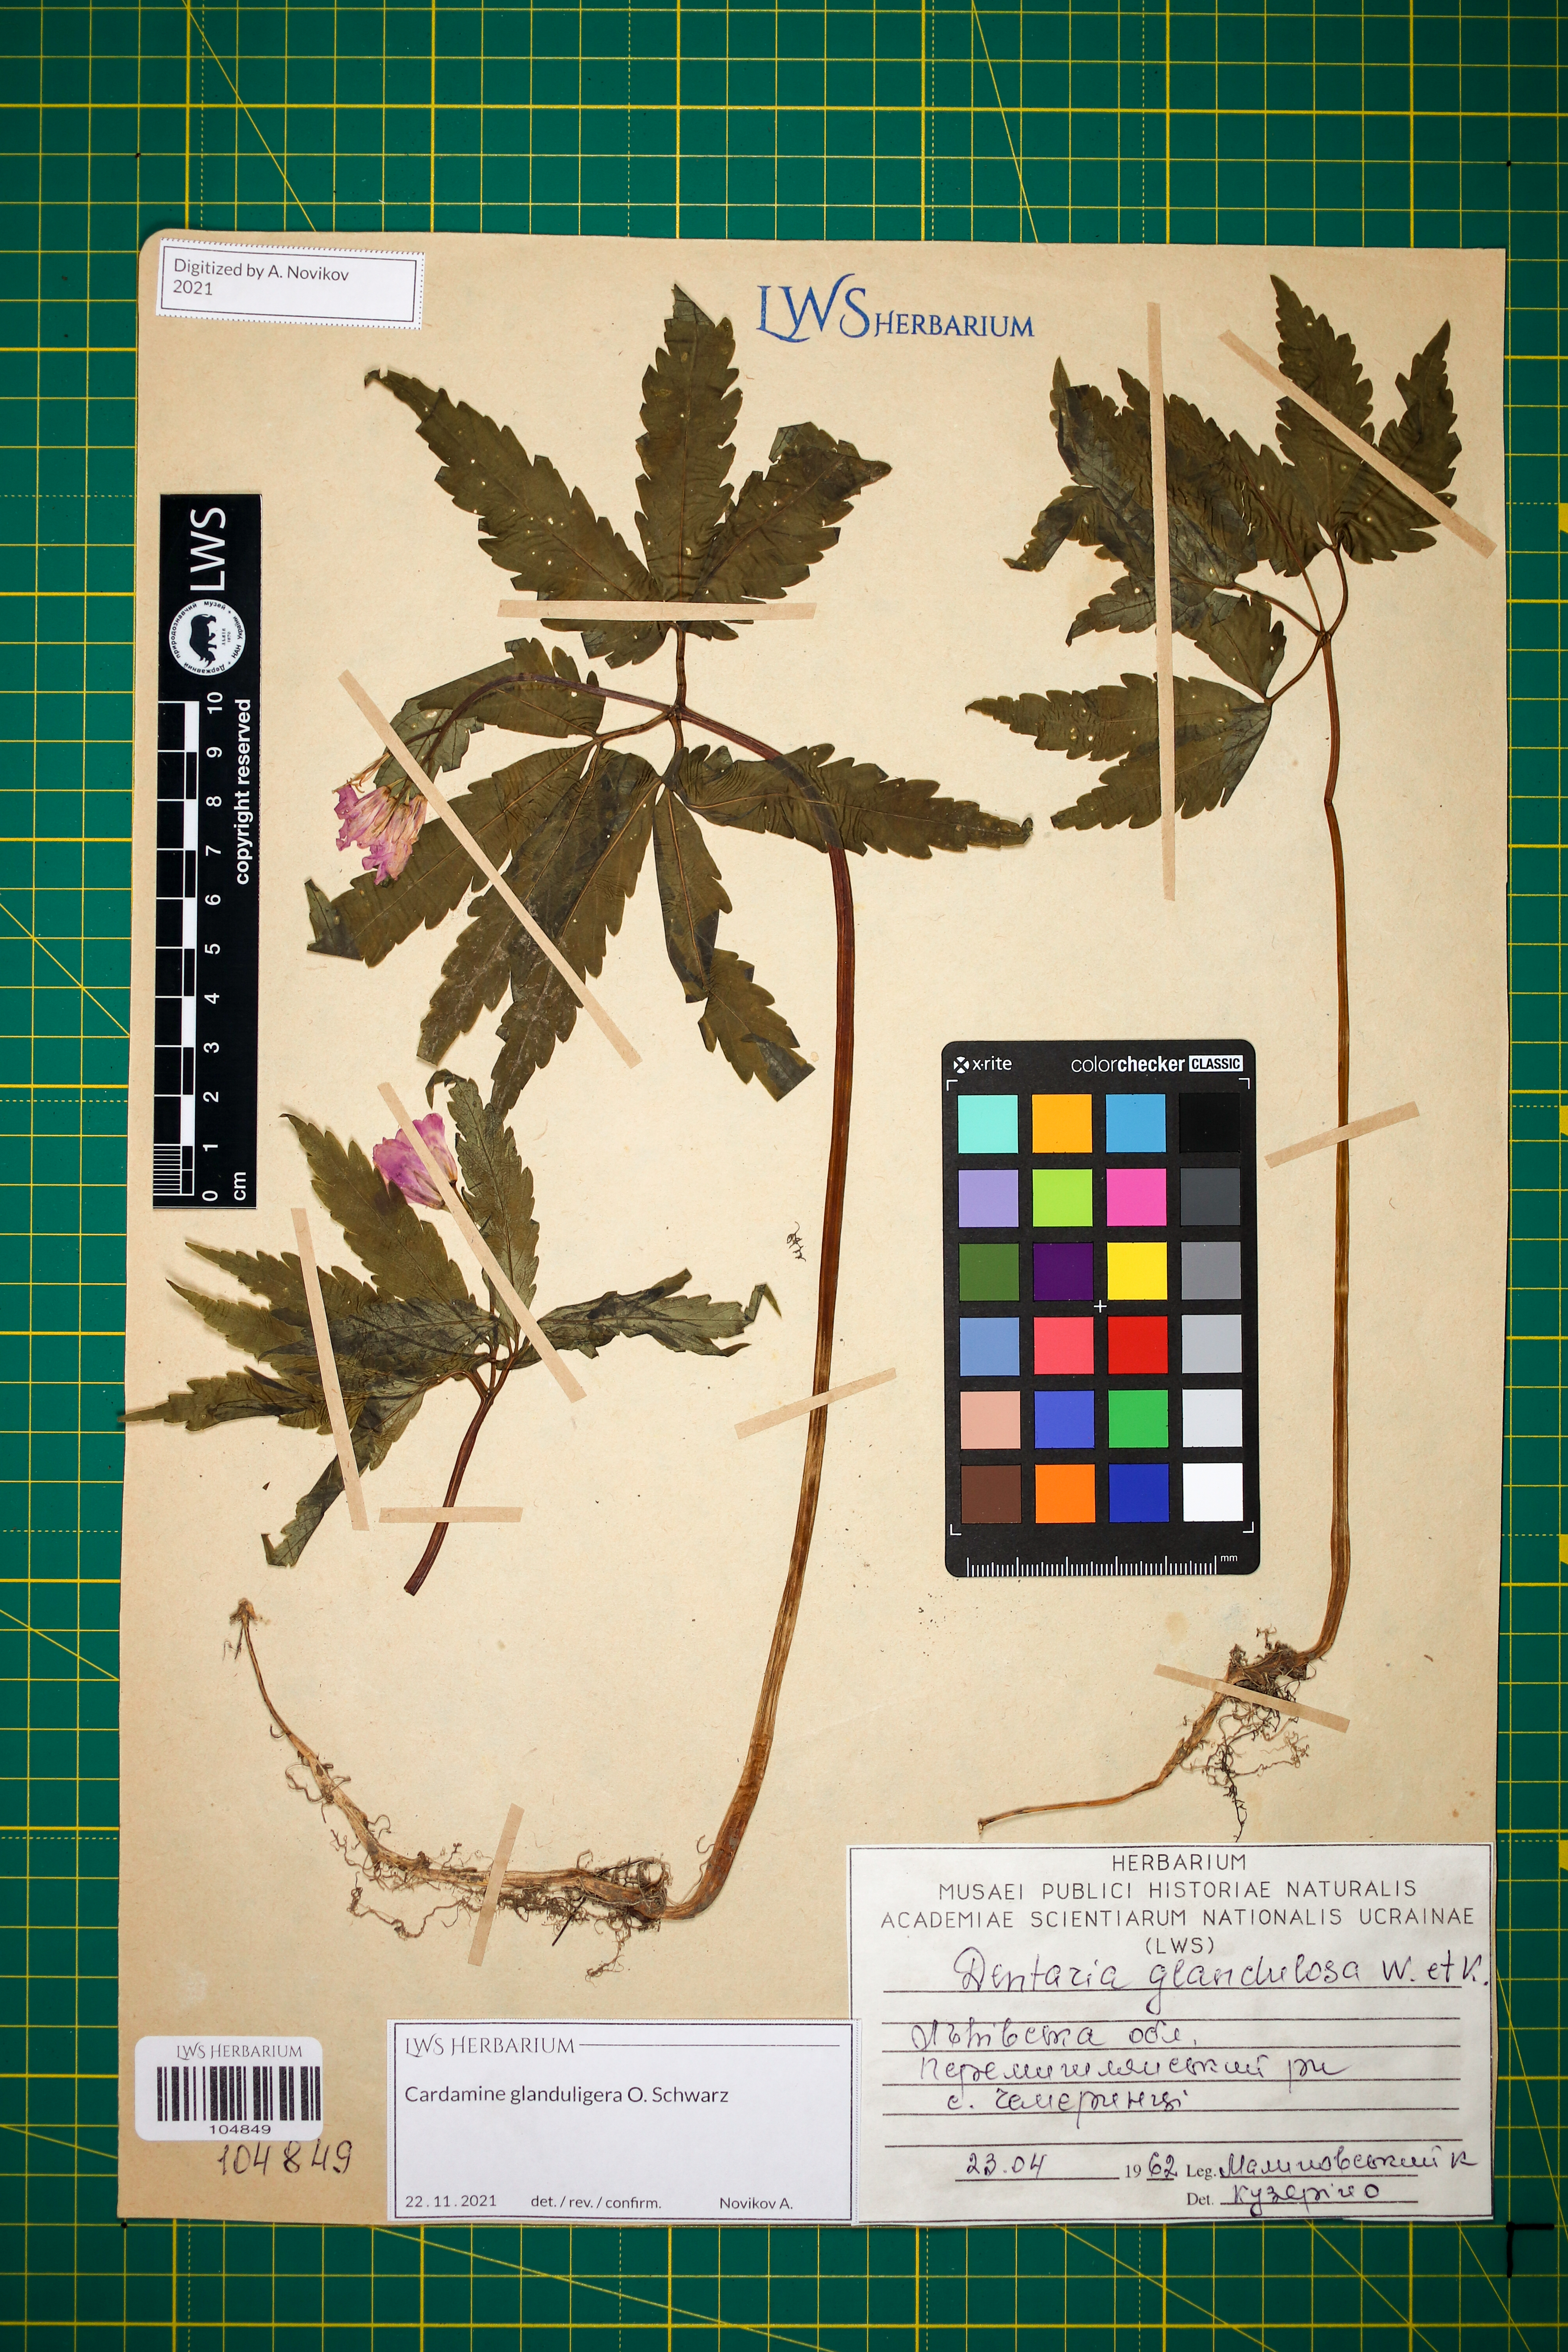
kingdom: Plantae
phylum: Tracheophyta
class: Magnoliopsida
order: Brassicales
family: Brassicaceae
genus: Cardamine
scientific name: Cardamine glanduligera
